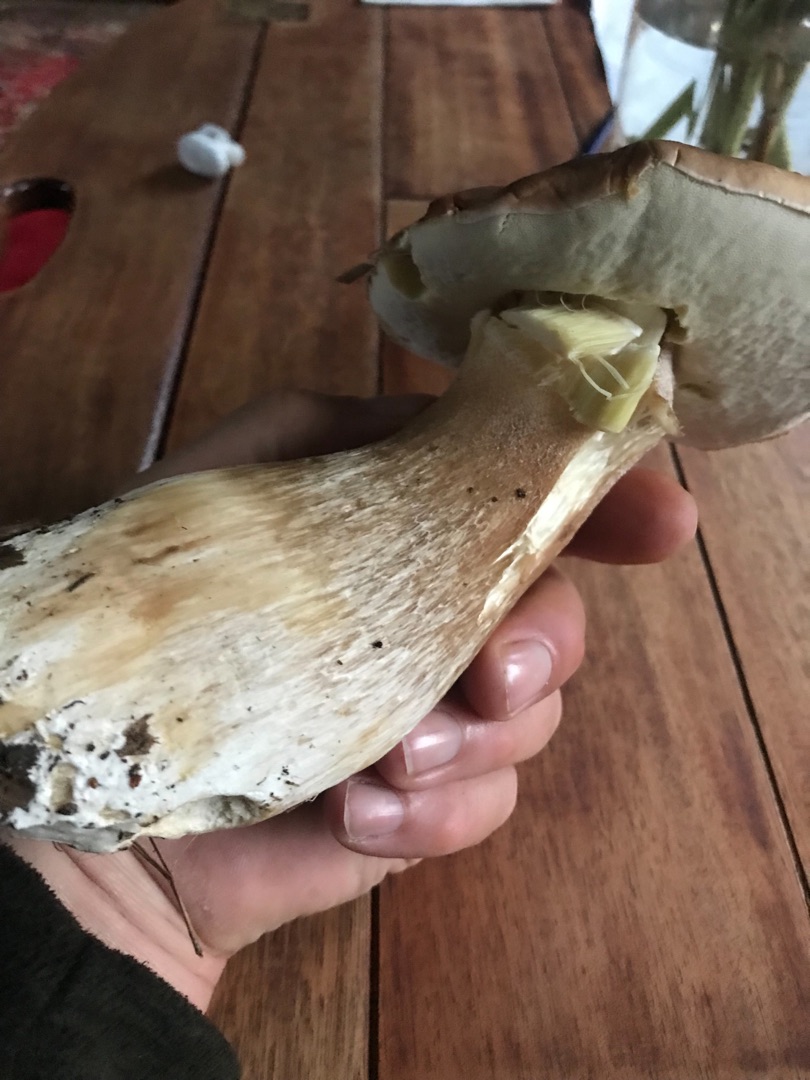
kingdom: Fungi
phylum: Basidiomycota
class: Agaricomycetes
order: Boletales
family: Boletaceae
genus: Boletus
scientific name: Boletus edulis
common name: Spiselig rørhat/karl johan
